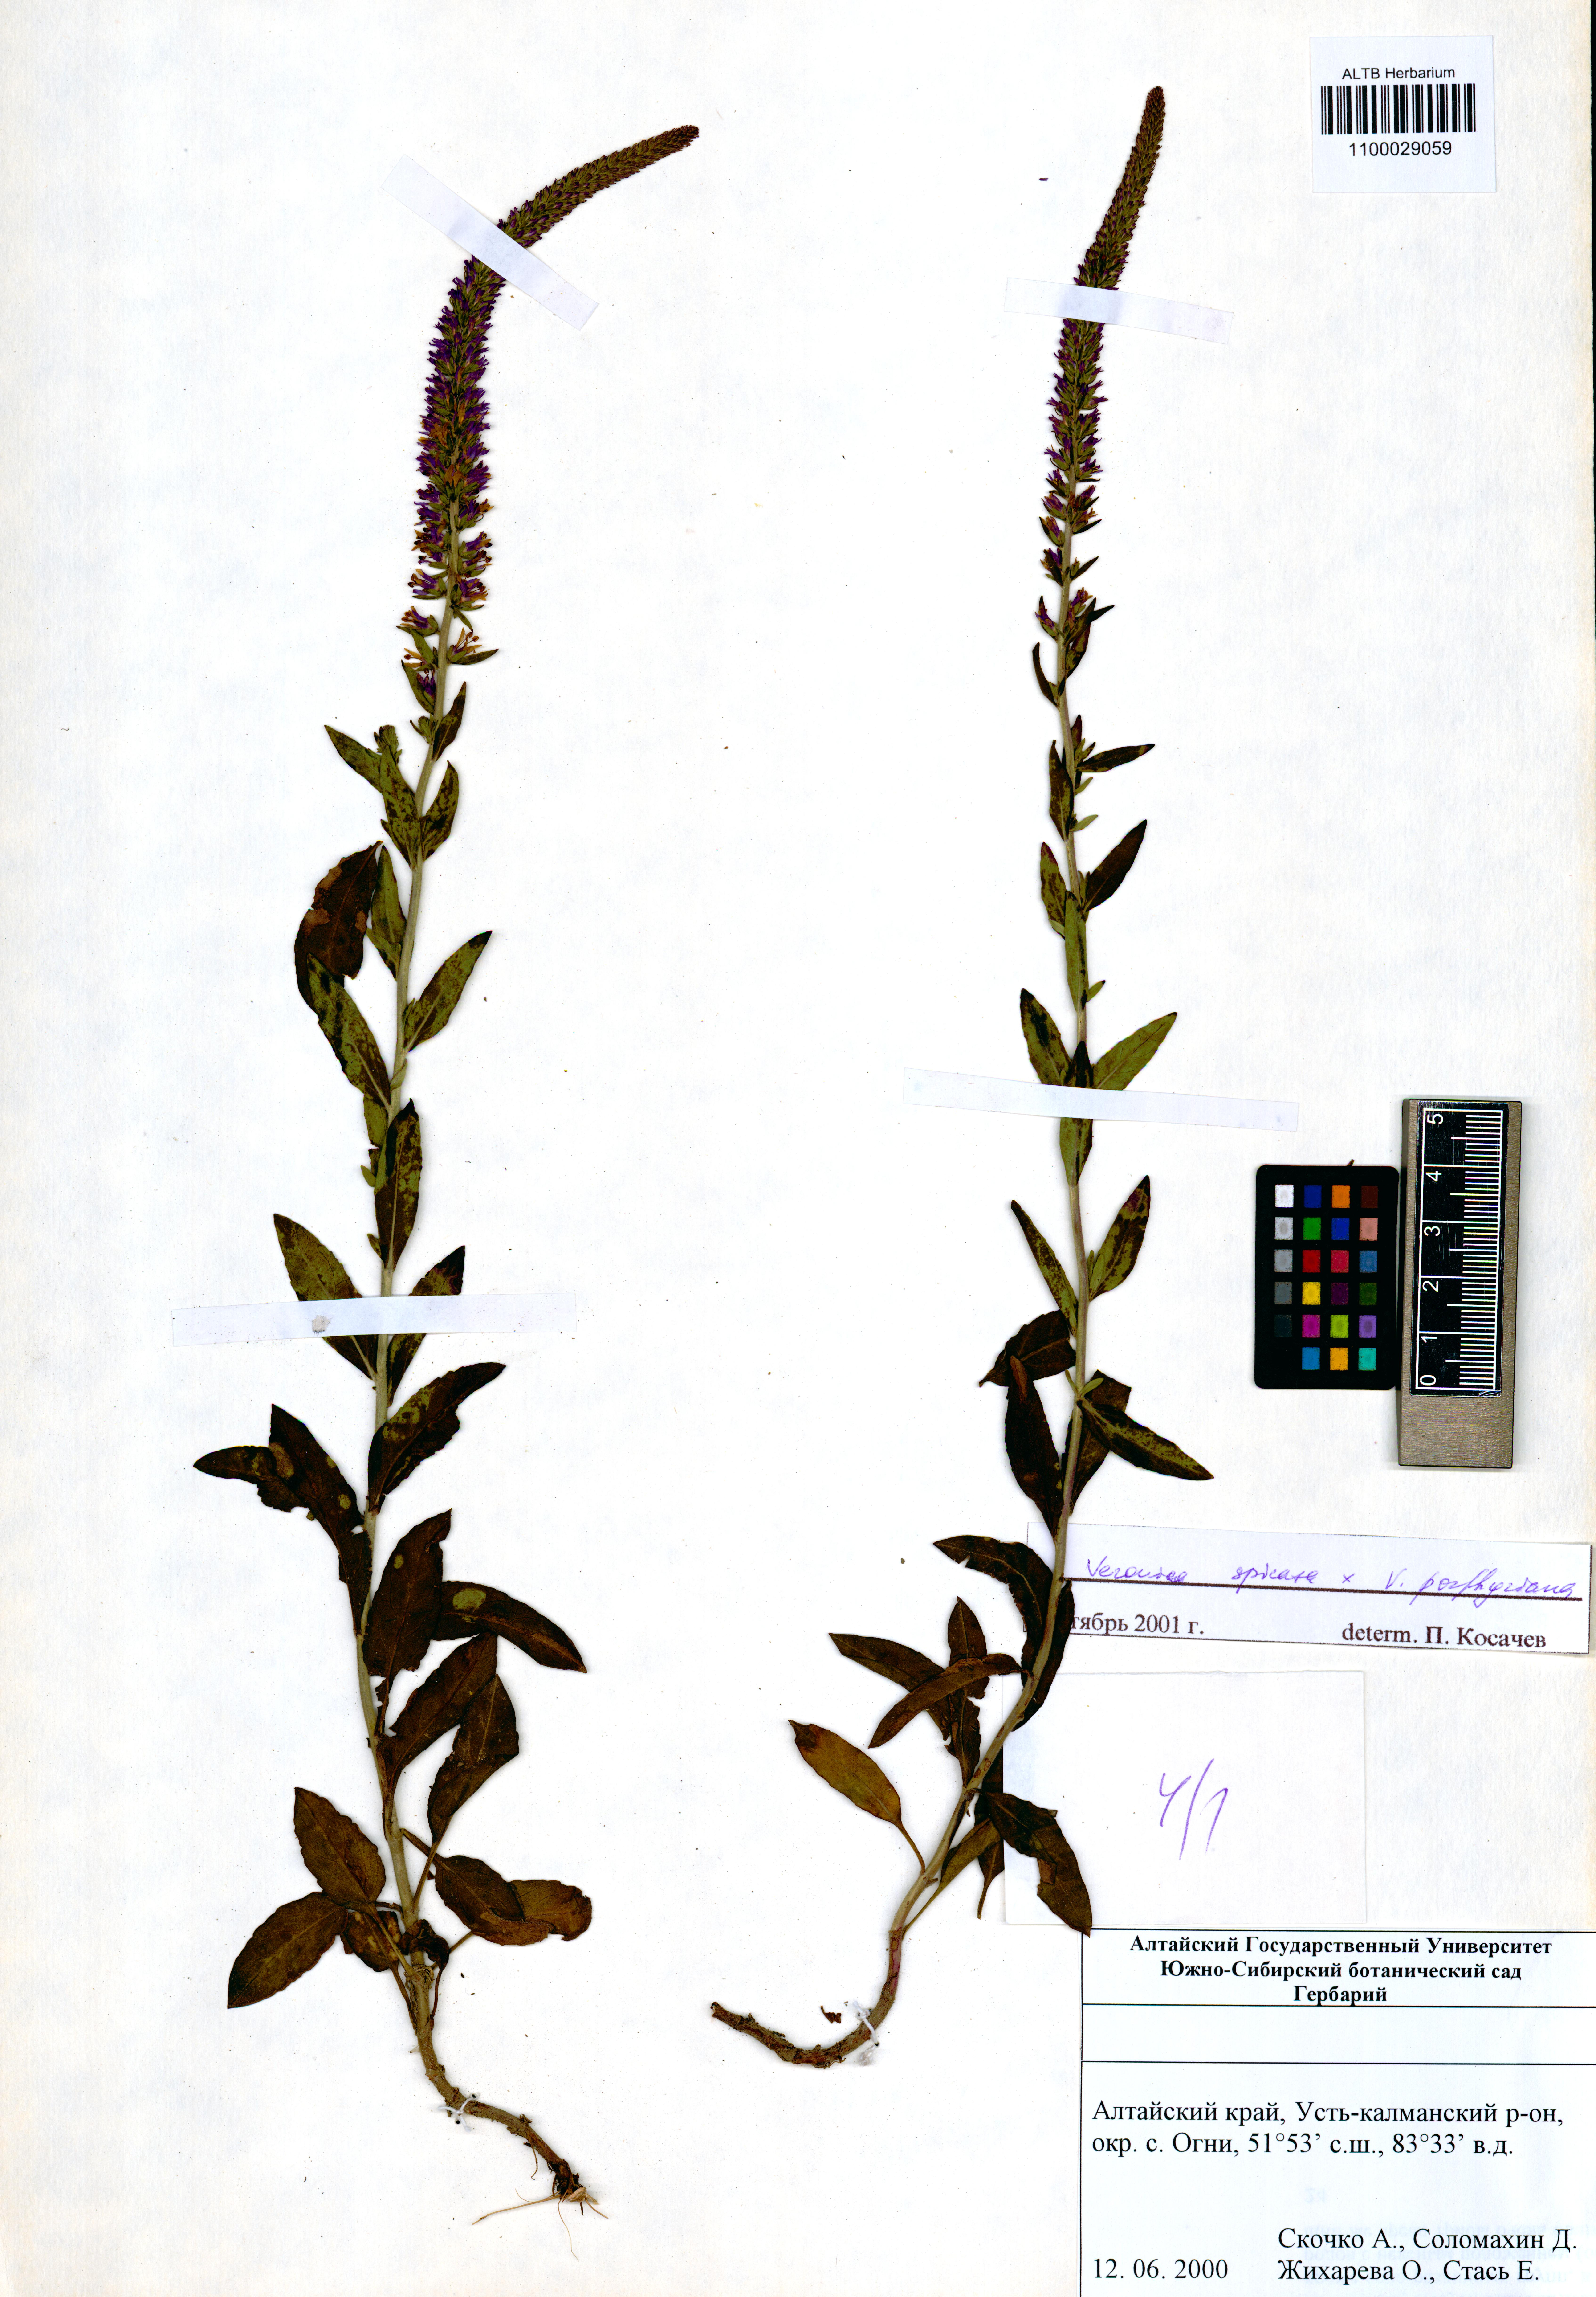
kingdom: Plantae
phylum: Tracheophyta
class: Magnoliopsida
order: Lamiales
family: Plantaginaceae
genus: Veronica
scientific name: Veronica spicata
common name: Spiked speedwell
